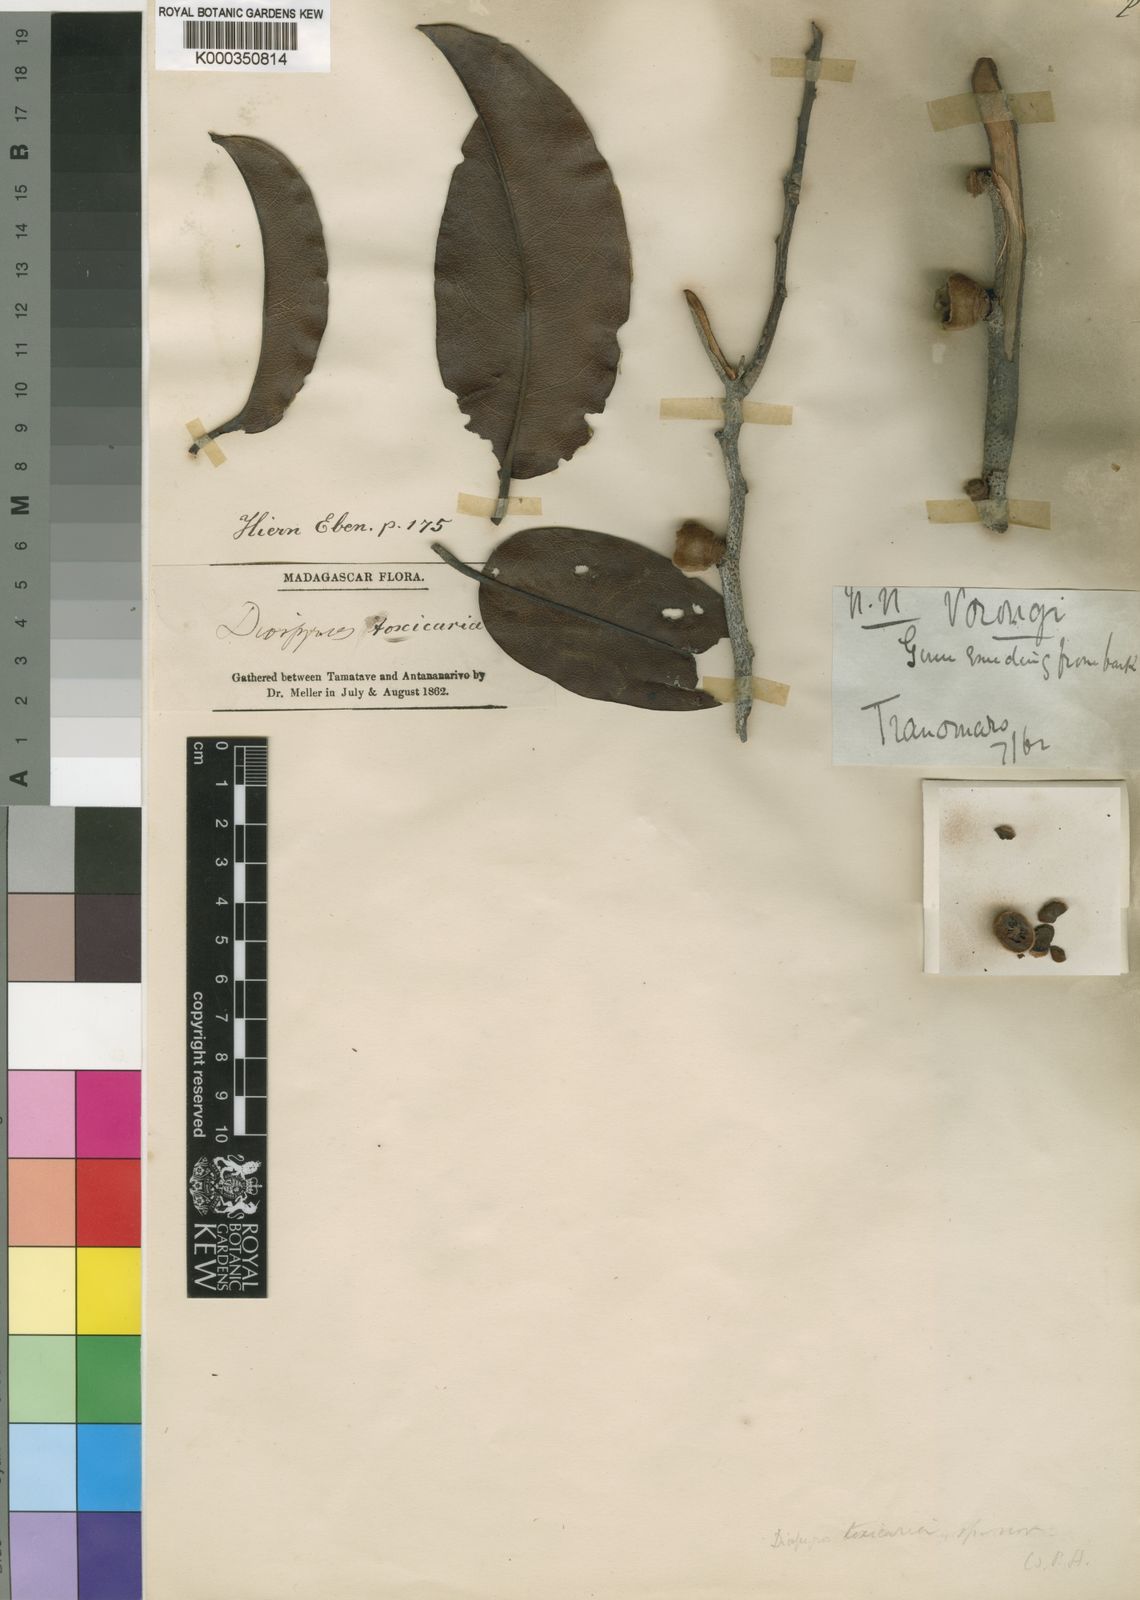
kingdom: Plantae
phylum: Tracheophyta
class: Magnoliopsida
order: Ericales
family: Ebenaceae
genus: Diospyros
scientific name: Diospyros toxicaria
